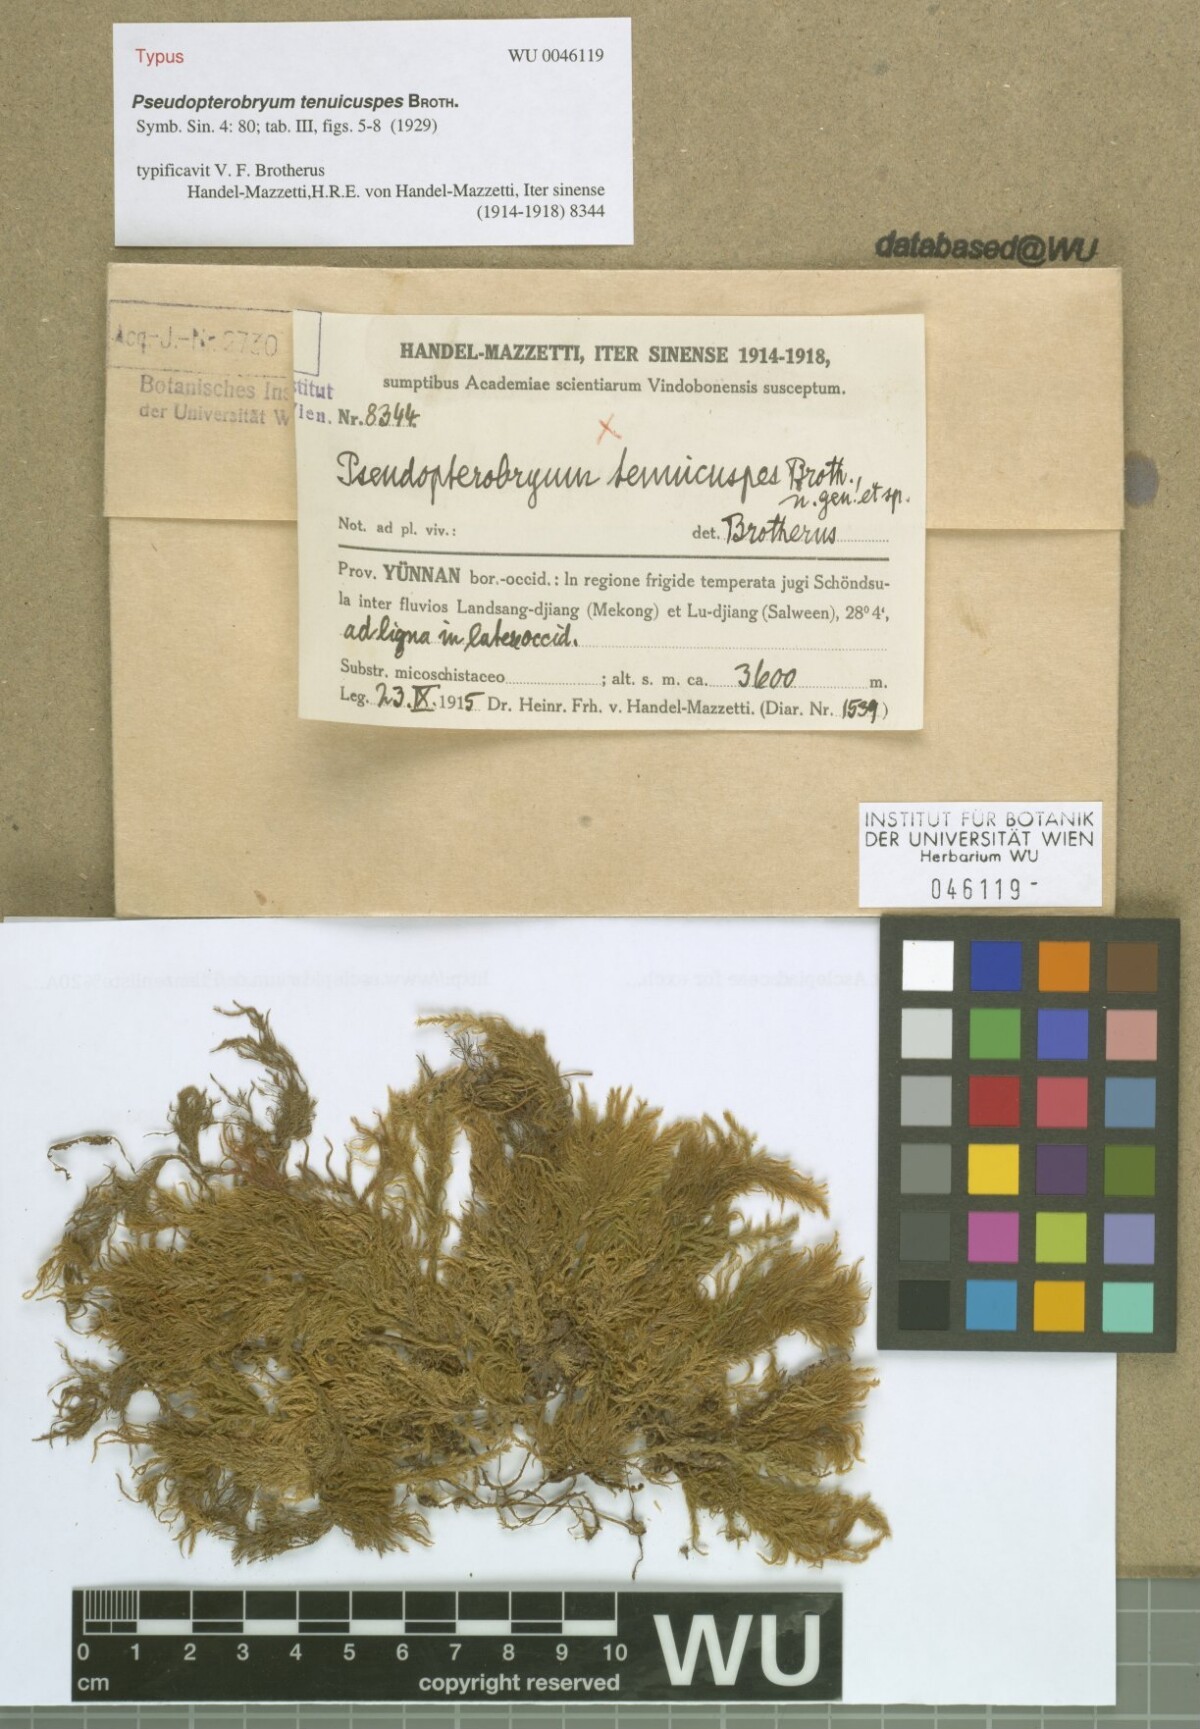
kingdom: Plantae
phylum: Bryophyta
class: Bryopsida
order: Hypnales
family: Neckeraceae
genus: Pseudopterobryum
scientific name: Pseudopterobryum tenuicuspis
